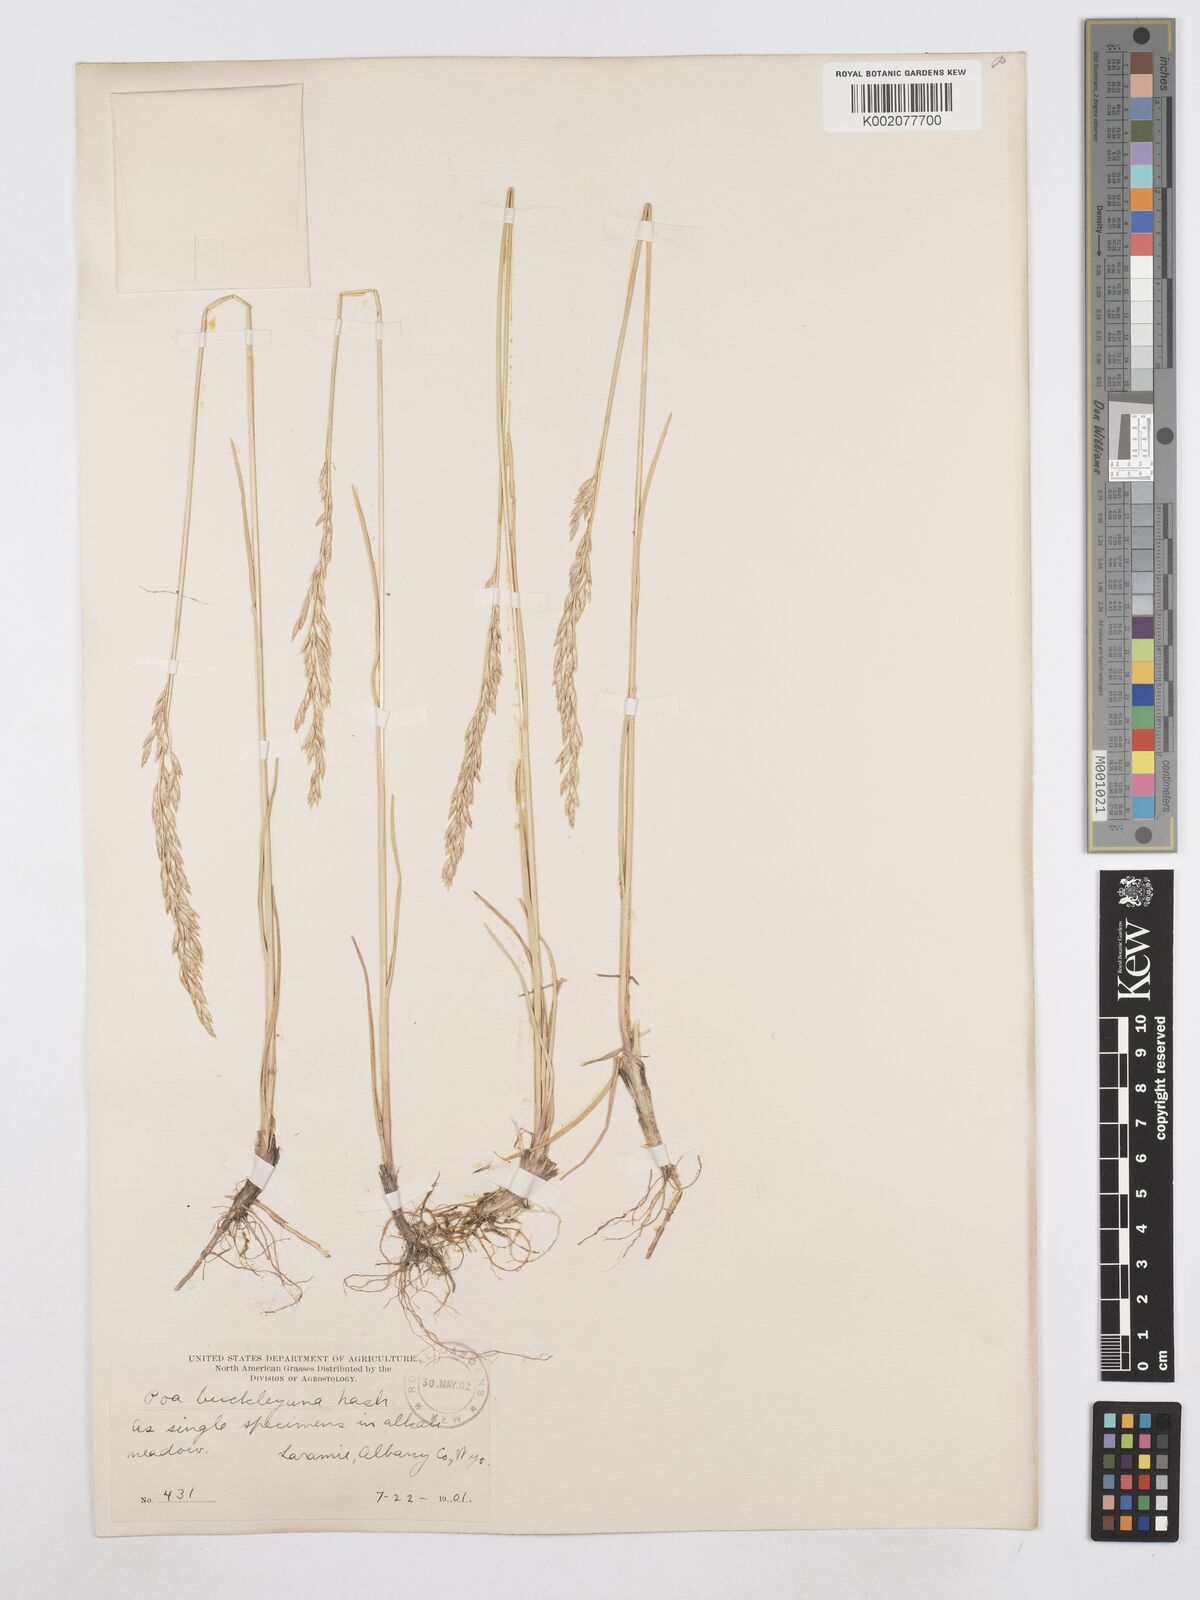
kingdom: Plantae
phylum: Tracheophyta
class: Liliopsida
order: Poales
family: Poaceae
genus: Poa
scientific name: Poa secunda
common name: Sandberg bluegrass
